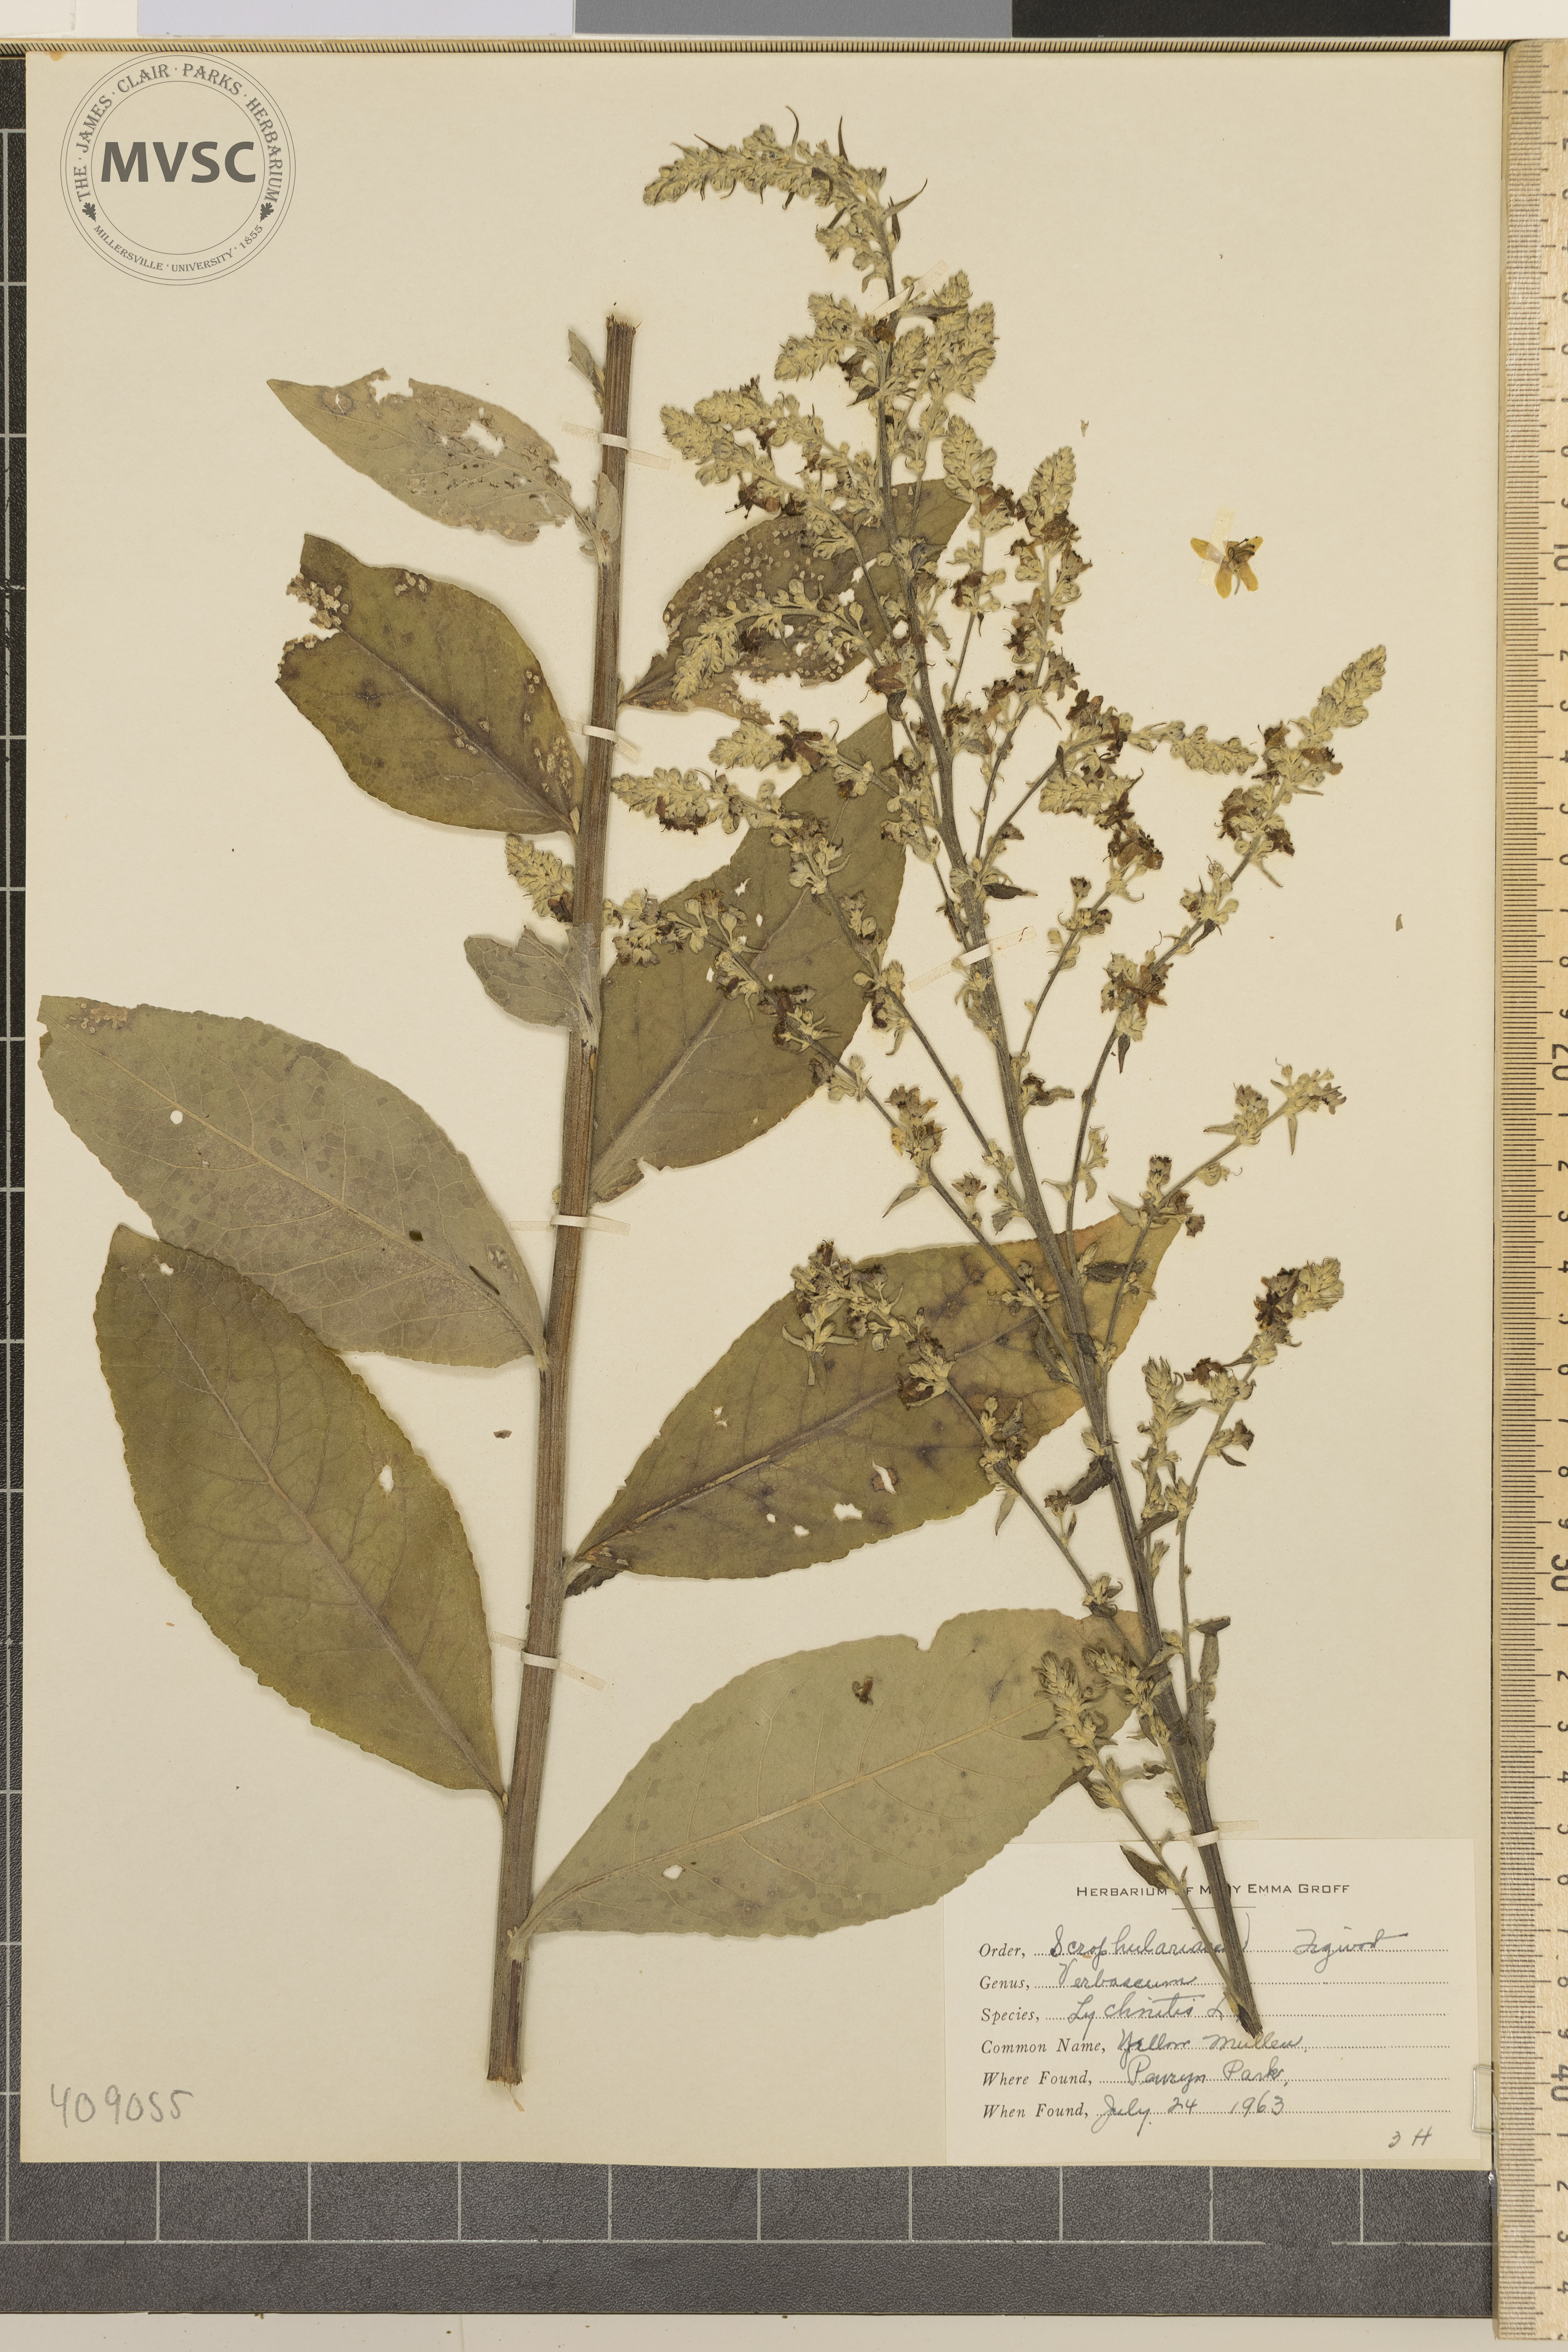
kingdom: Plantae
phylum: Tracheophyta
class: Magnoliopsida
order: Lamiales
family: Scrophulariaceae
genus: Verbascum
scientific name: Verbascum lychnitis
